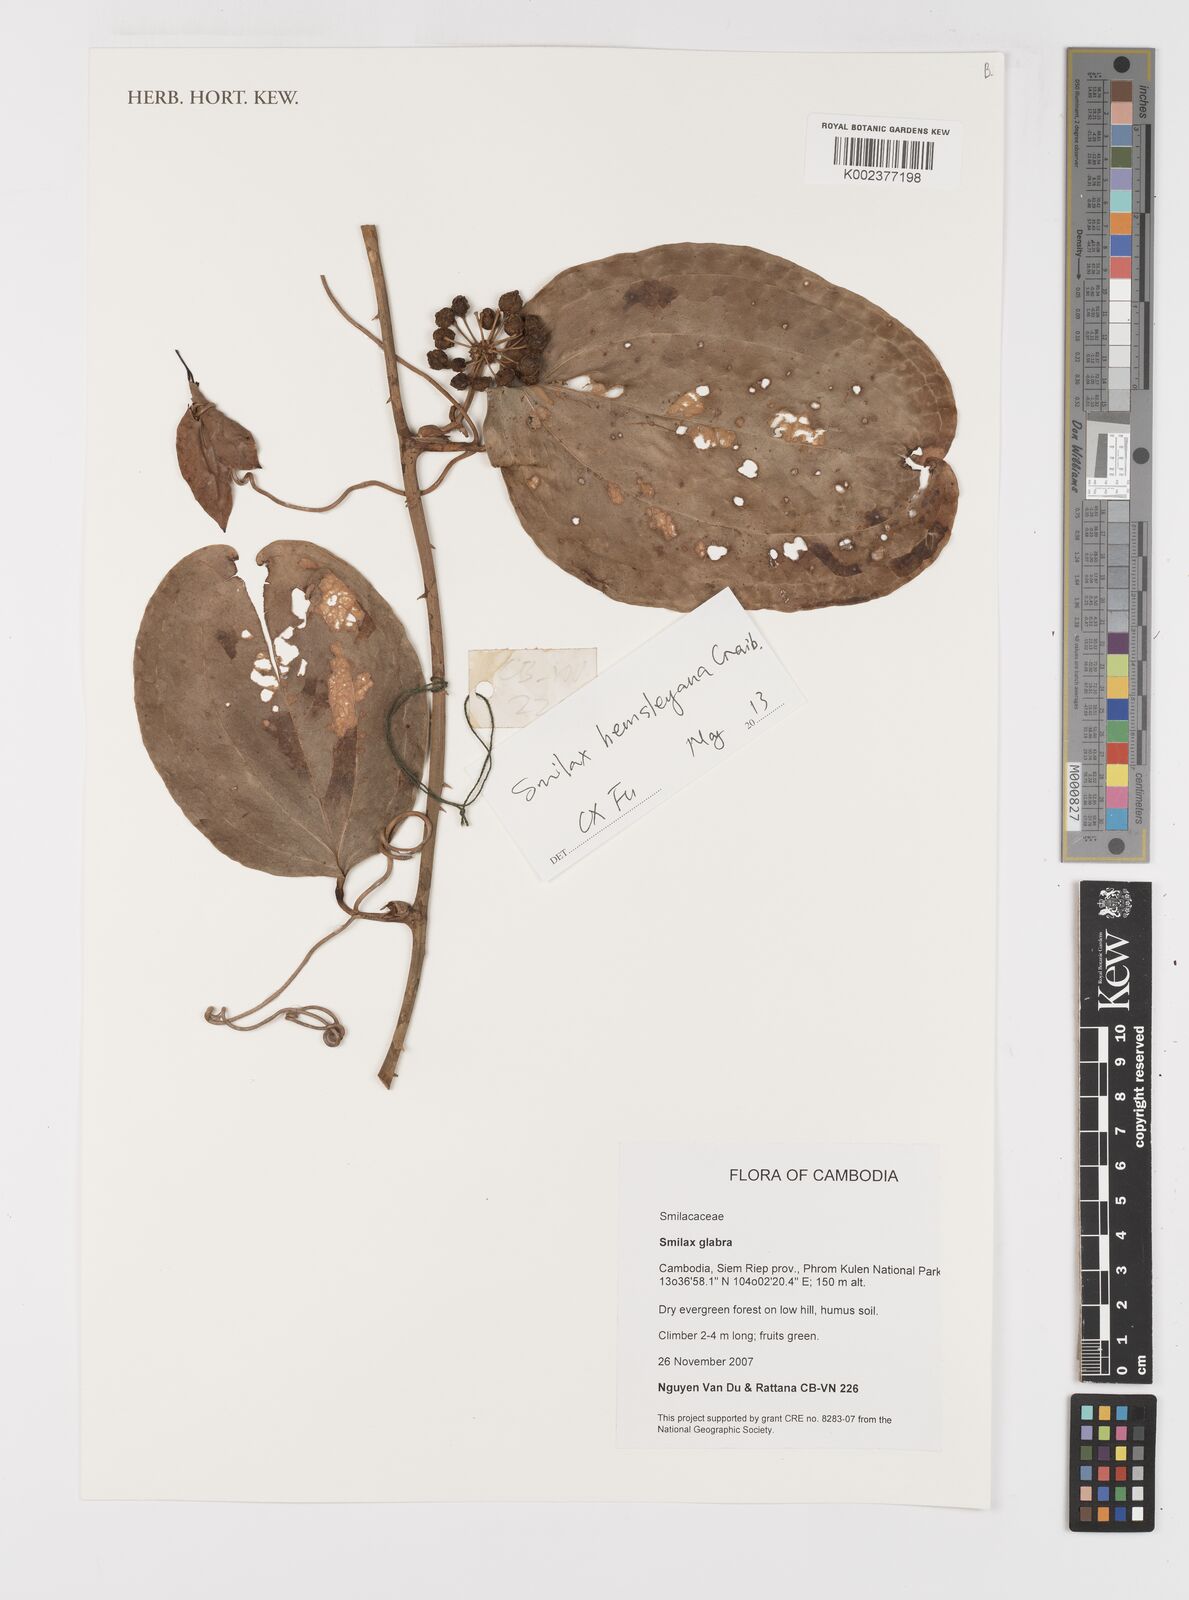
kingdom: Plantae
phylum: Tracheophyta
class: Liliopsida
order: Liliales
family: Smilacaceae
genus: Smilax
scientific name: Smilax hemsleyana
